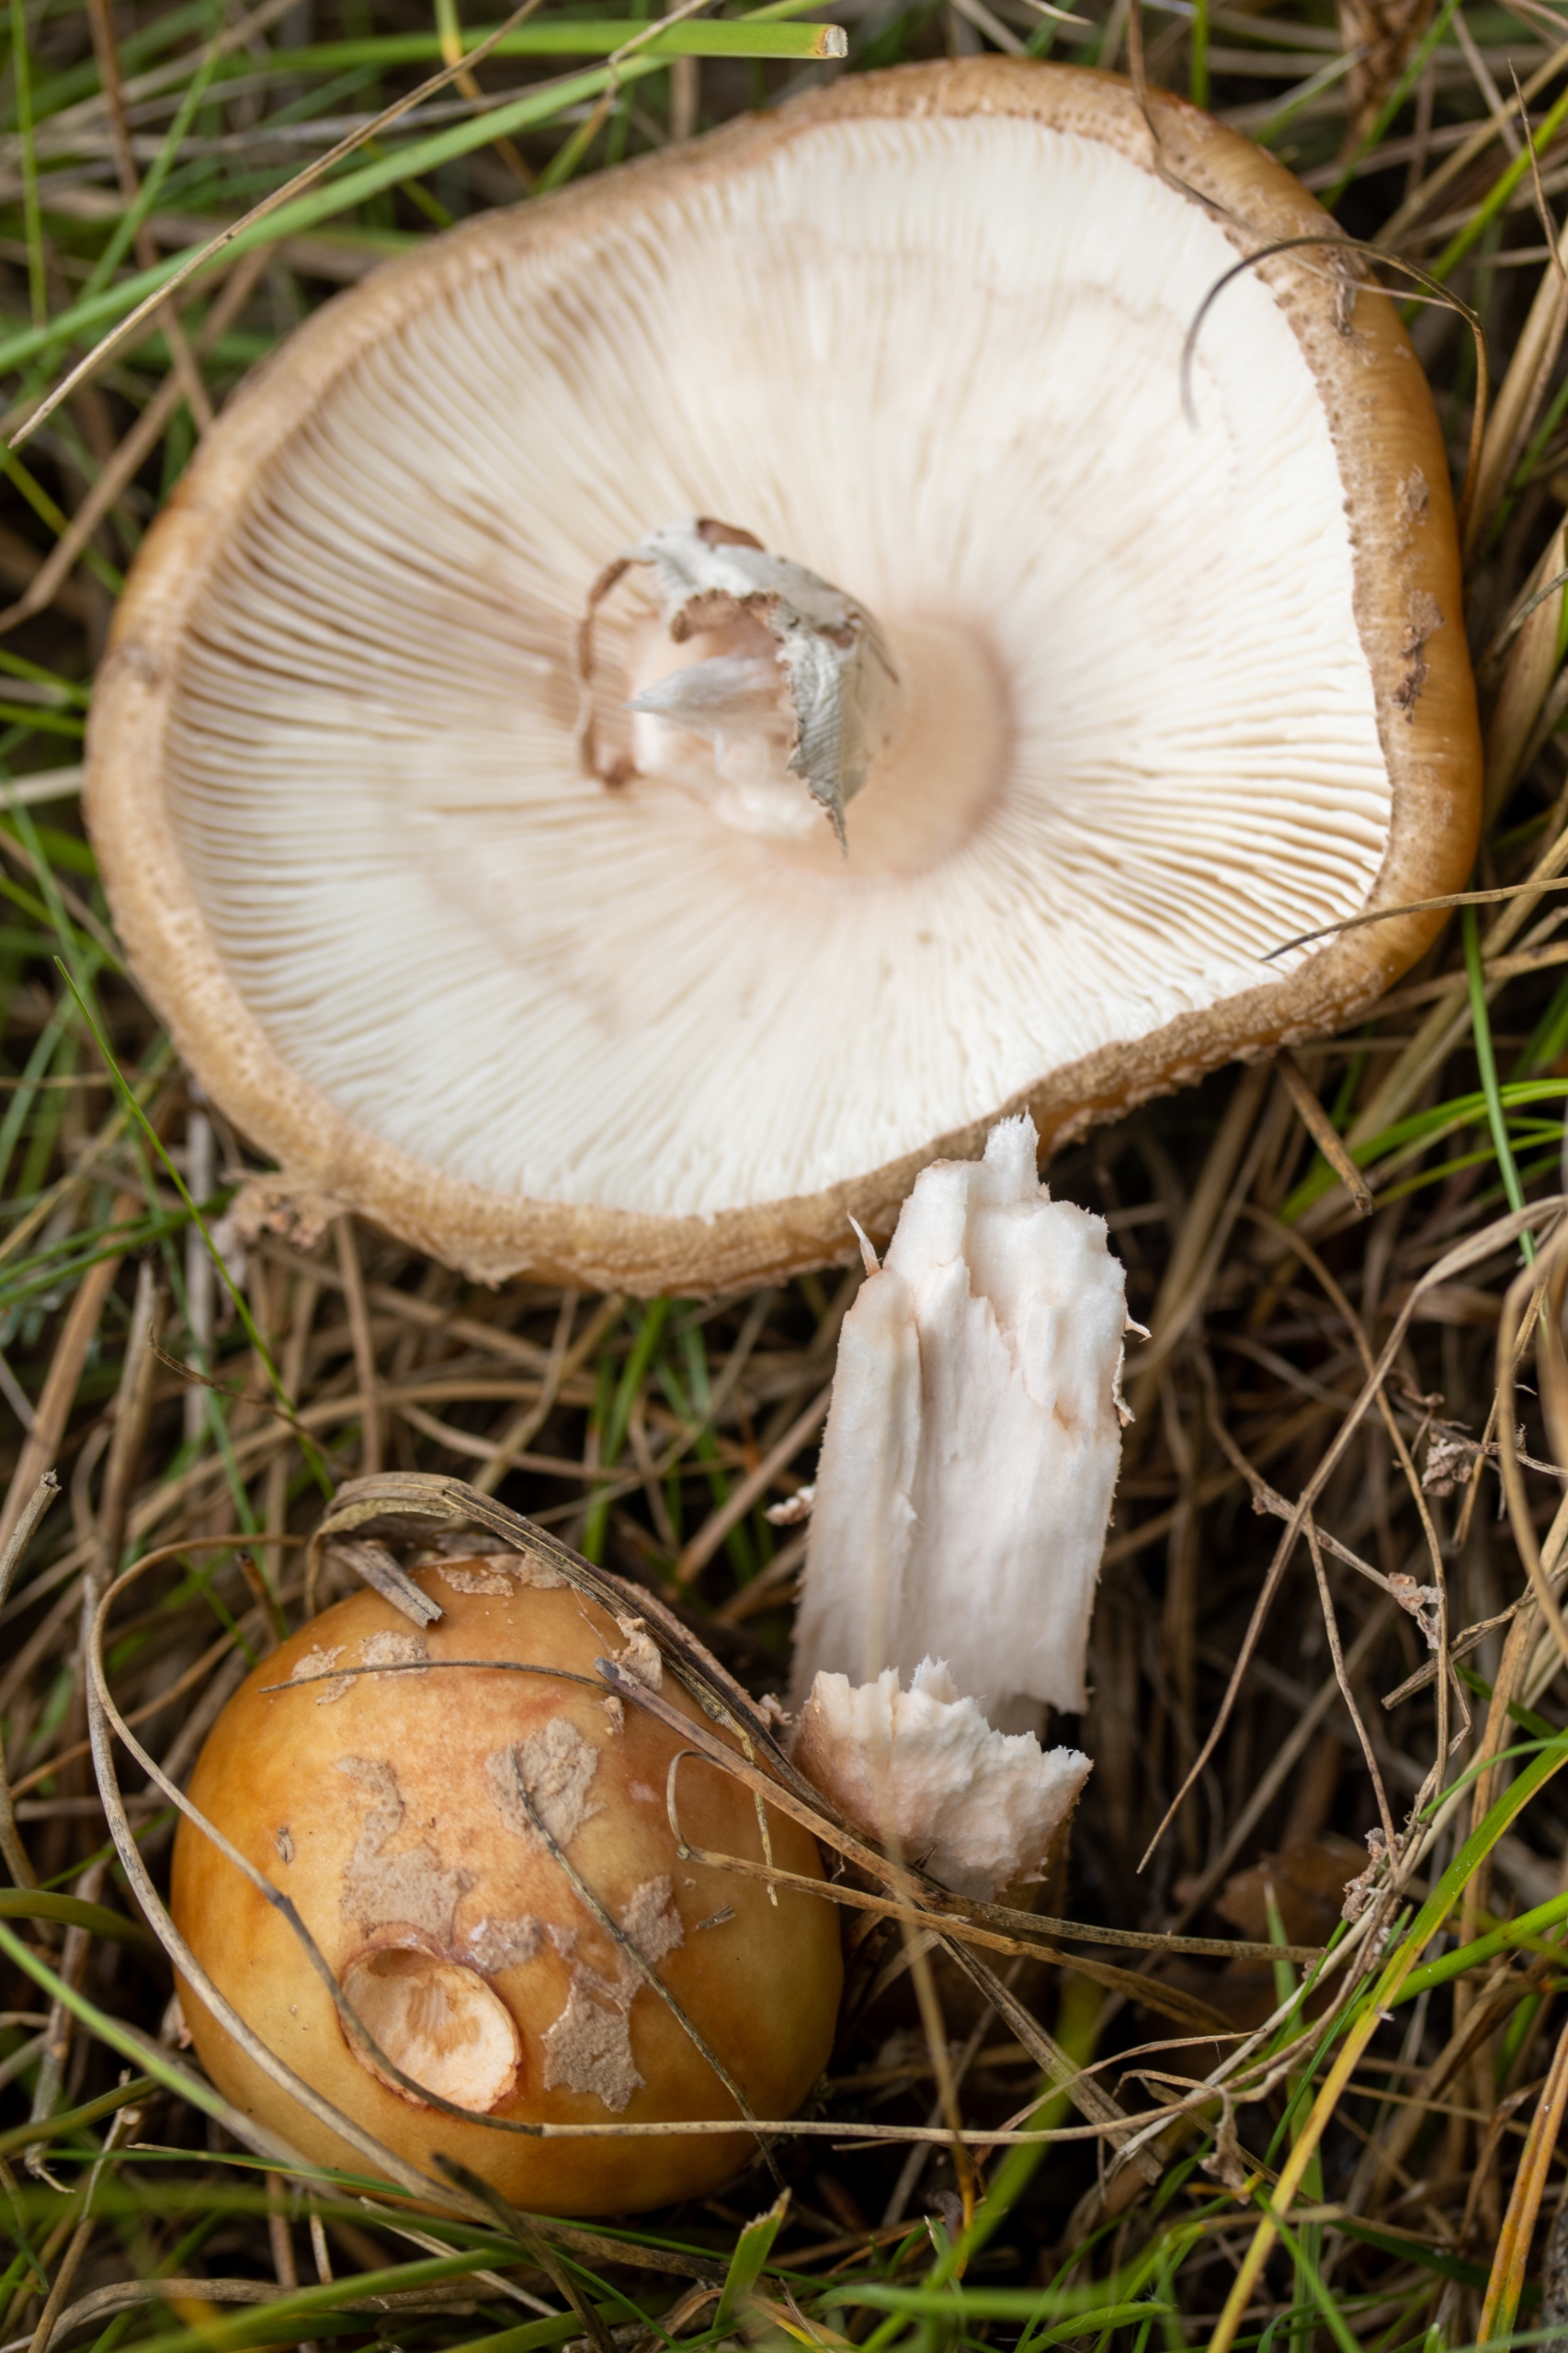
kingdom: Fungi
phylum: Basidiomycota
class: Agaricomycetes
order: Agaricales
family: Amanitaceae
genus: Amanita
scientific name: Amanita rubescens
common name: Rødmende fluesvamp
